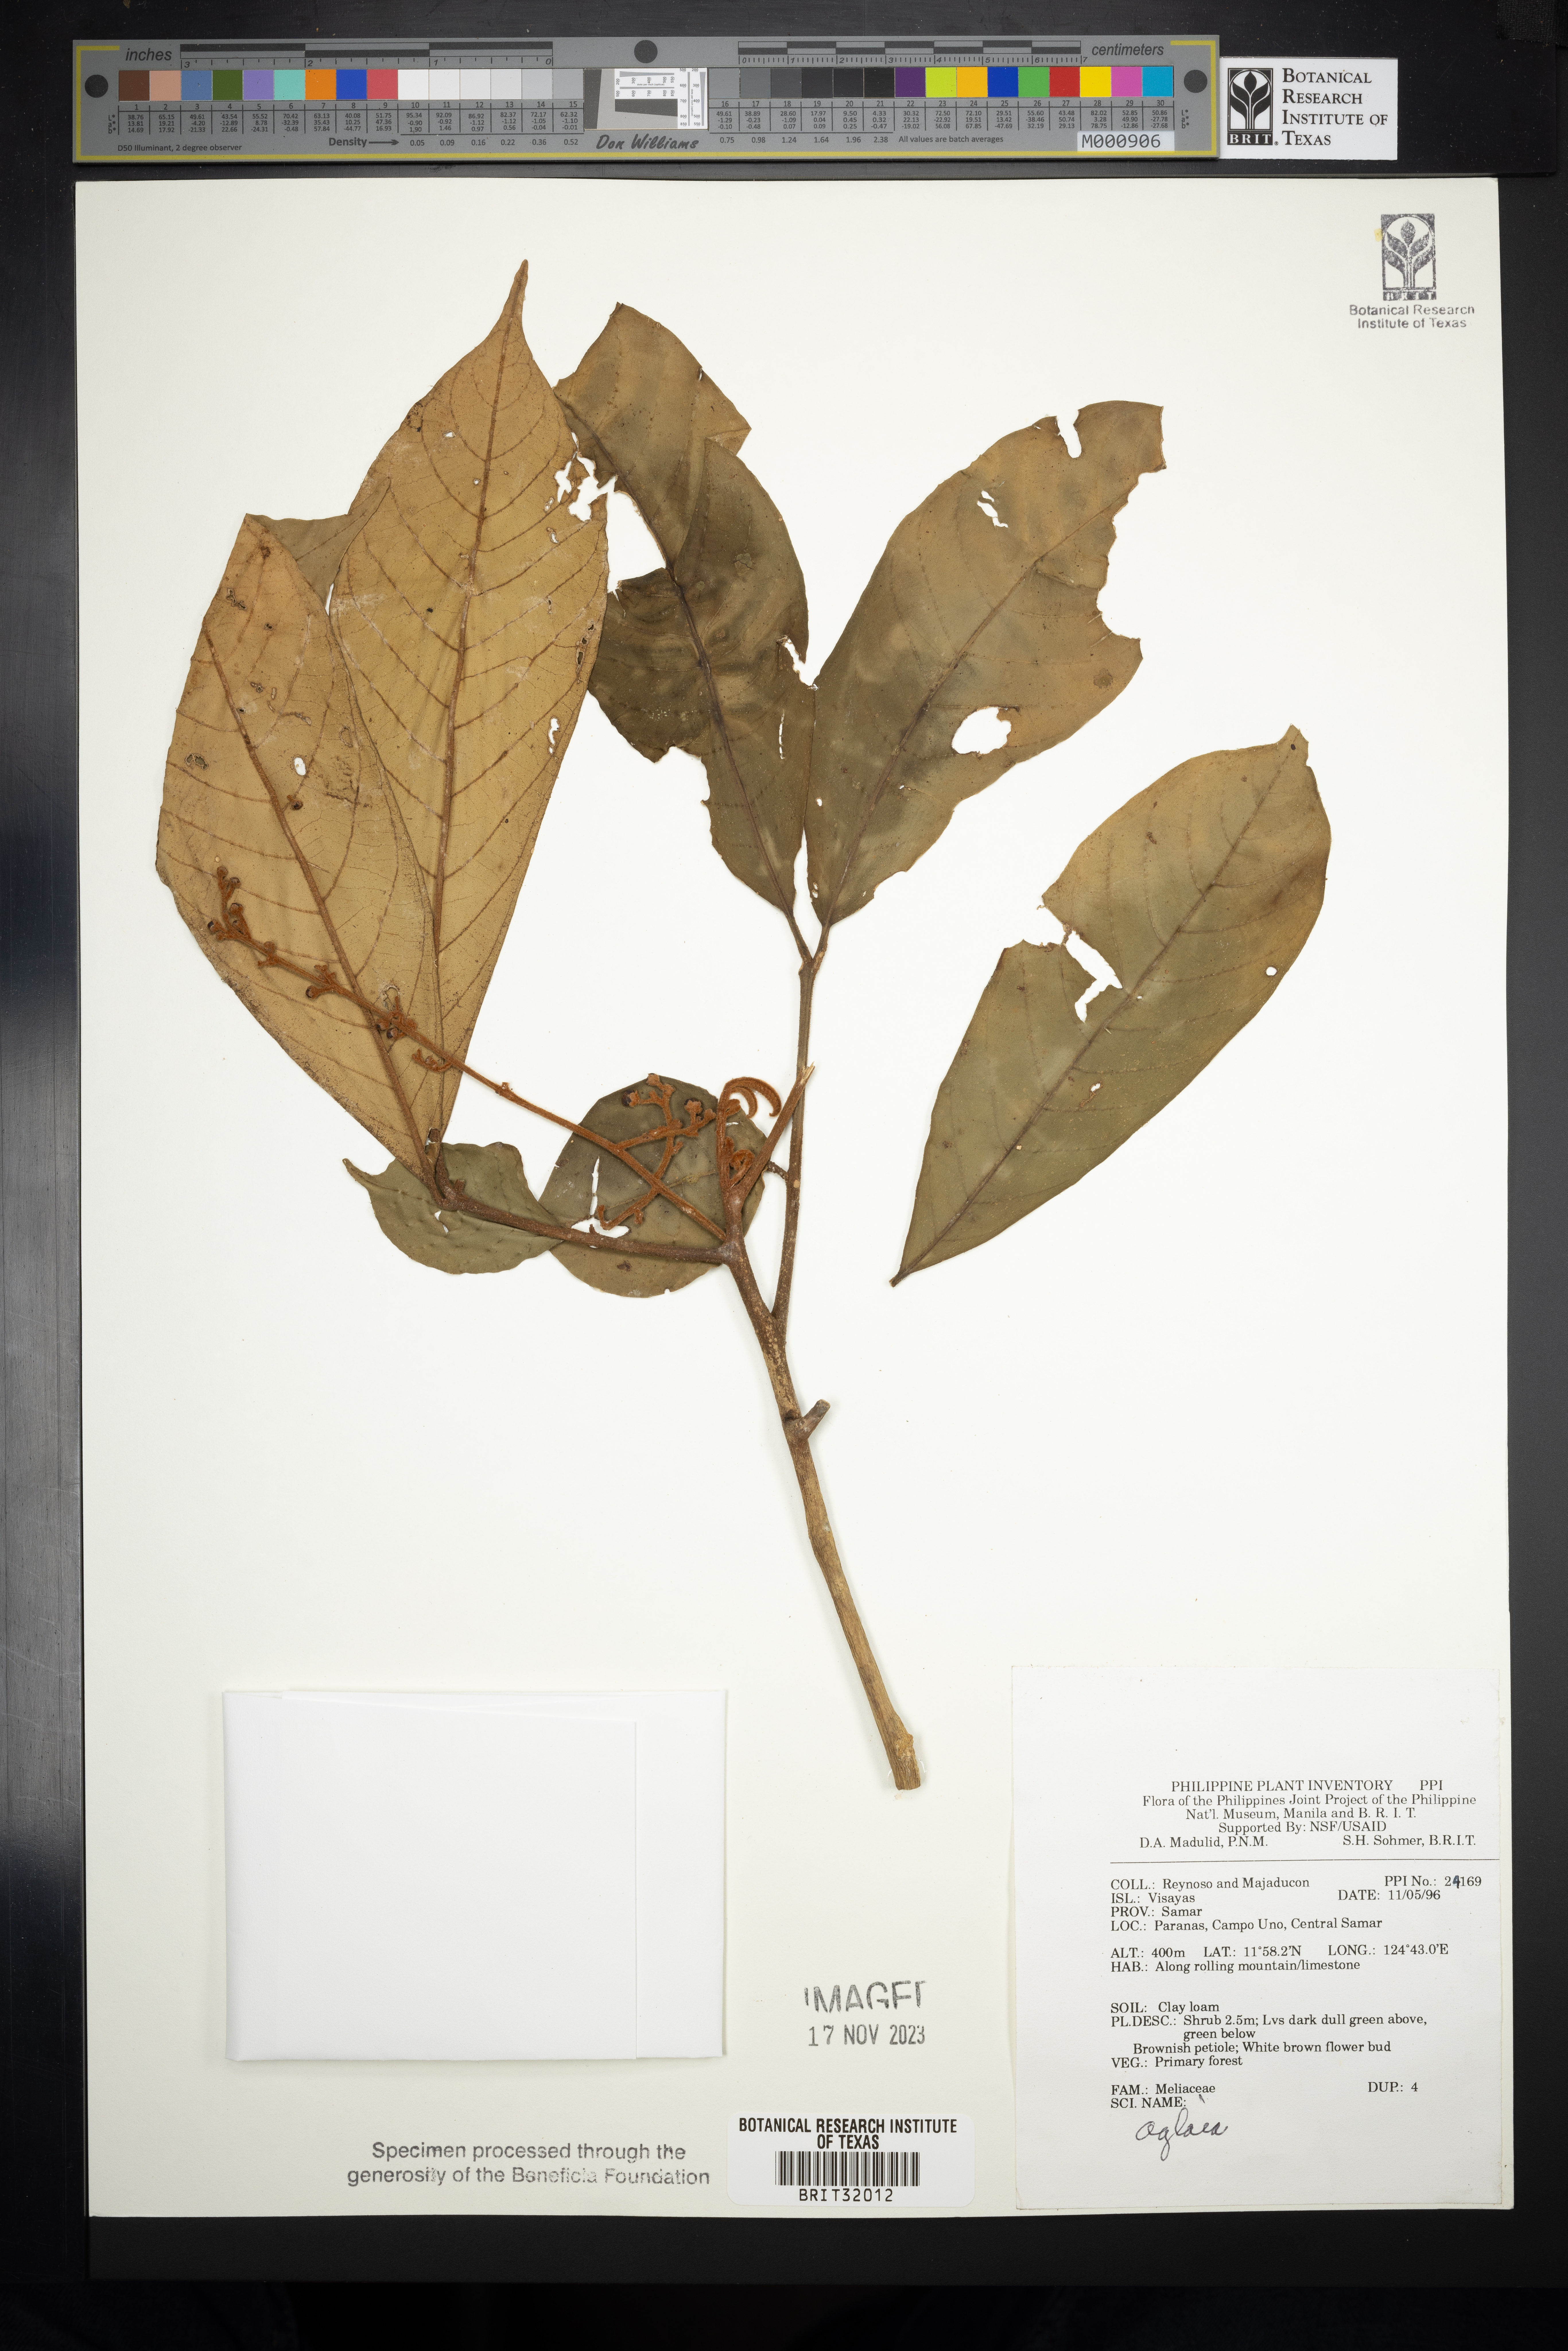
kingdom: Plantae
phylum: Tracheophyta
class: Magnoliopsida
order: Sapindales
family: Meliaceae
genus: Aglaia
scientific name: Aglaia
